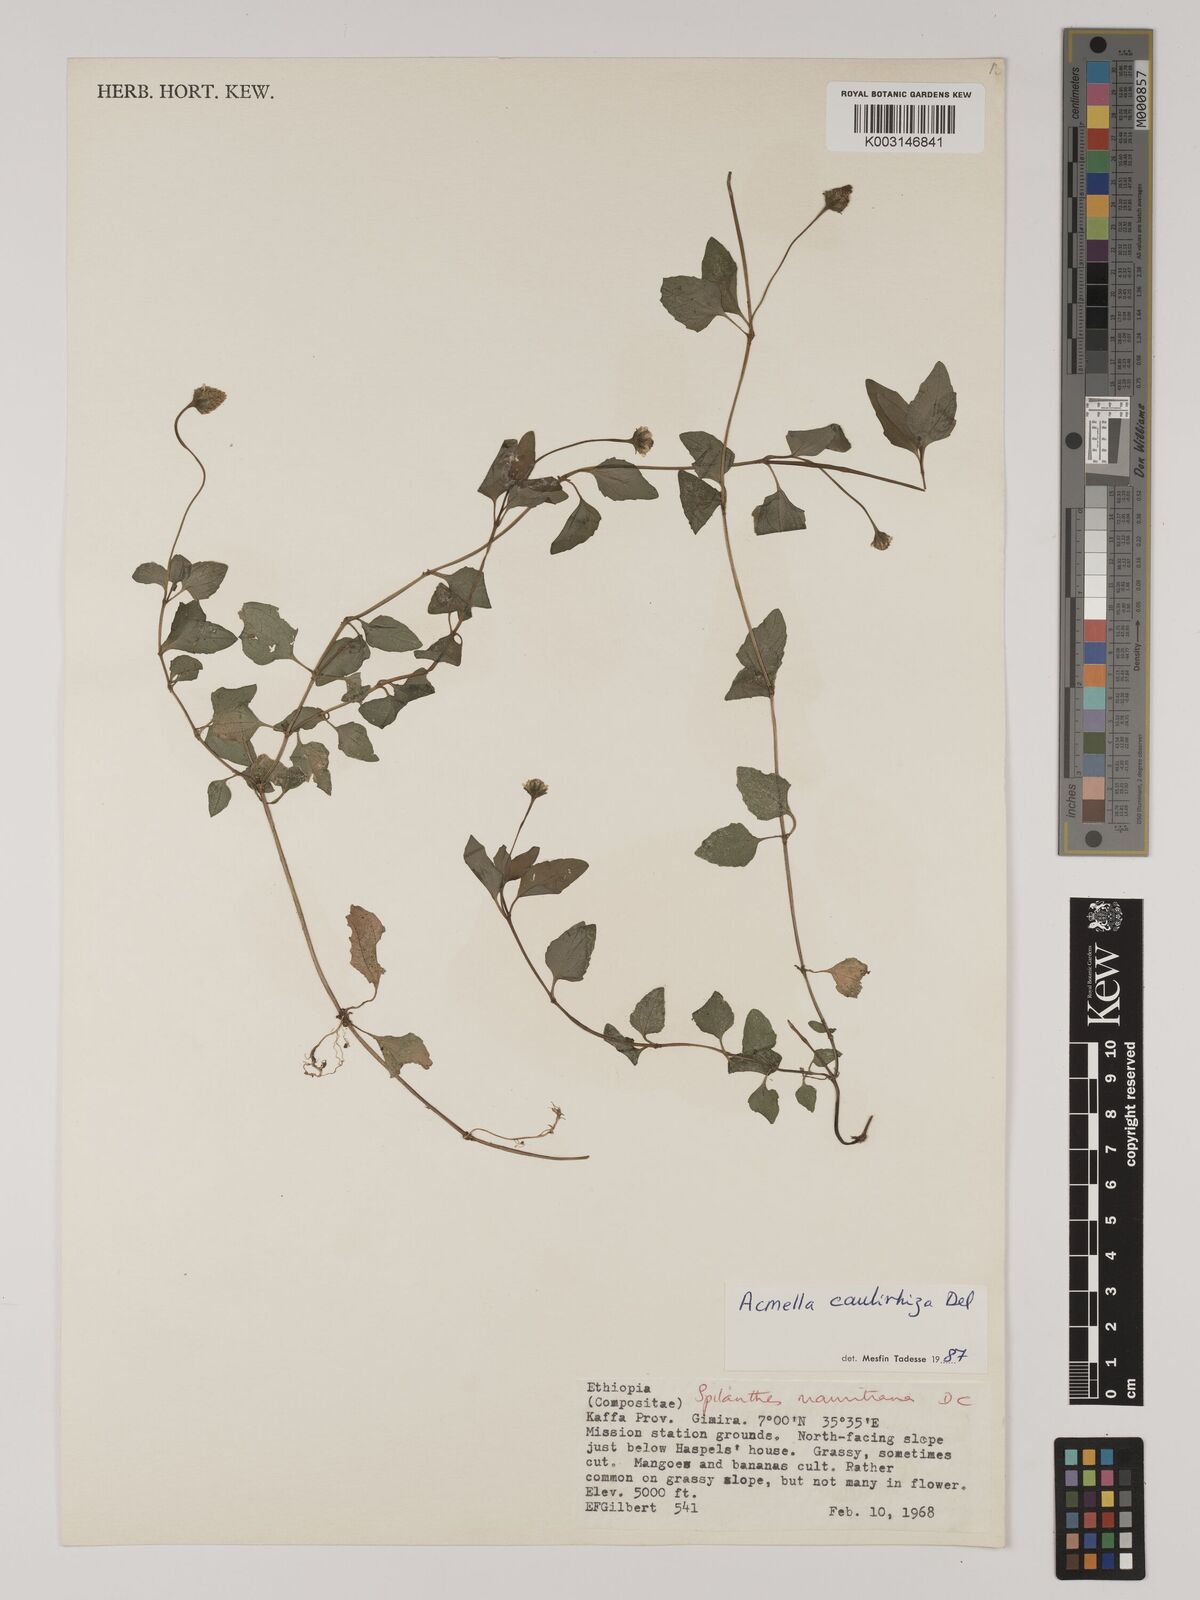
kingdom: Plantae
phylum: Tracheophyta
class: Magnoliopsida
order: Asterales
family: Asteraceae
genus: Acmella
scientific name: Acmella caulirhiza
